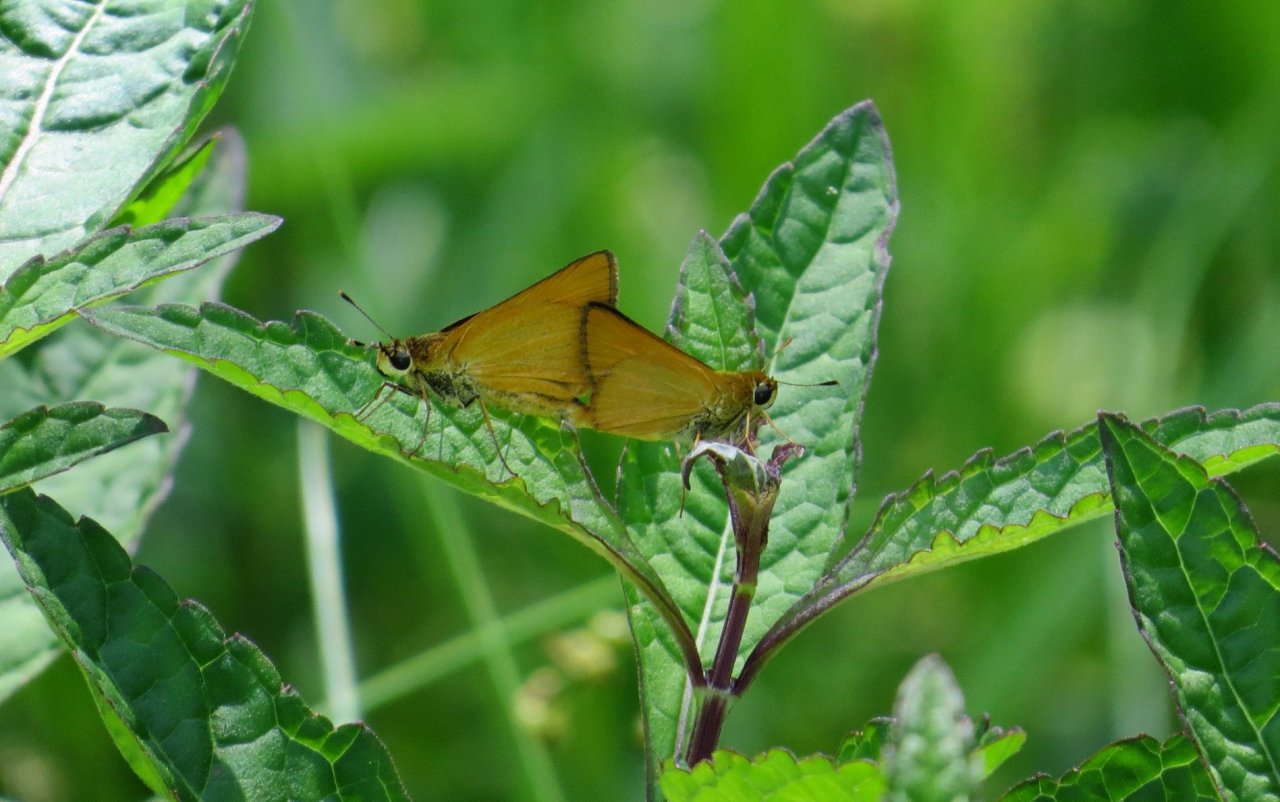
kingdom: Animalia
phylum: Arthropoda
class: Insecta
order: Lepidoptera
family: Hesperiidae
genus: Atrytone
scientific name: Atrytone delaware
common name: Delaware Skipper
